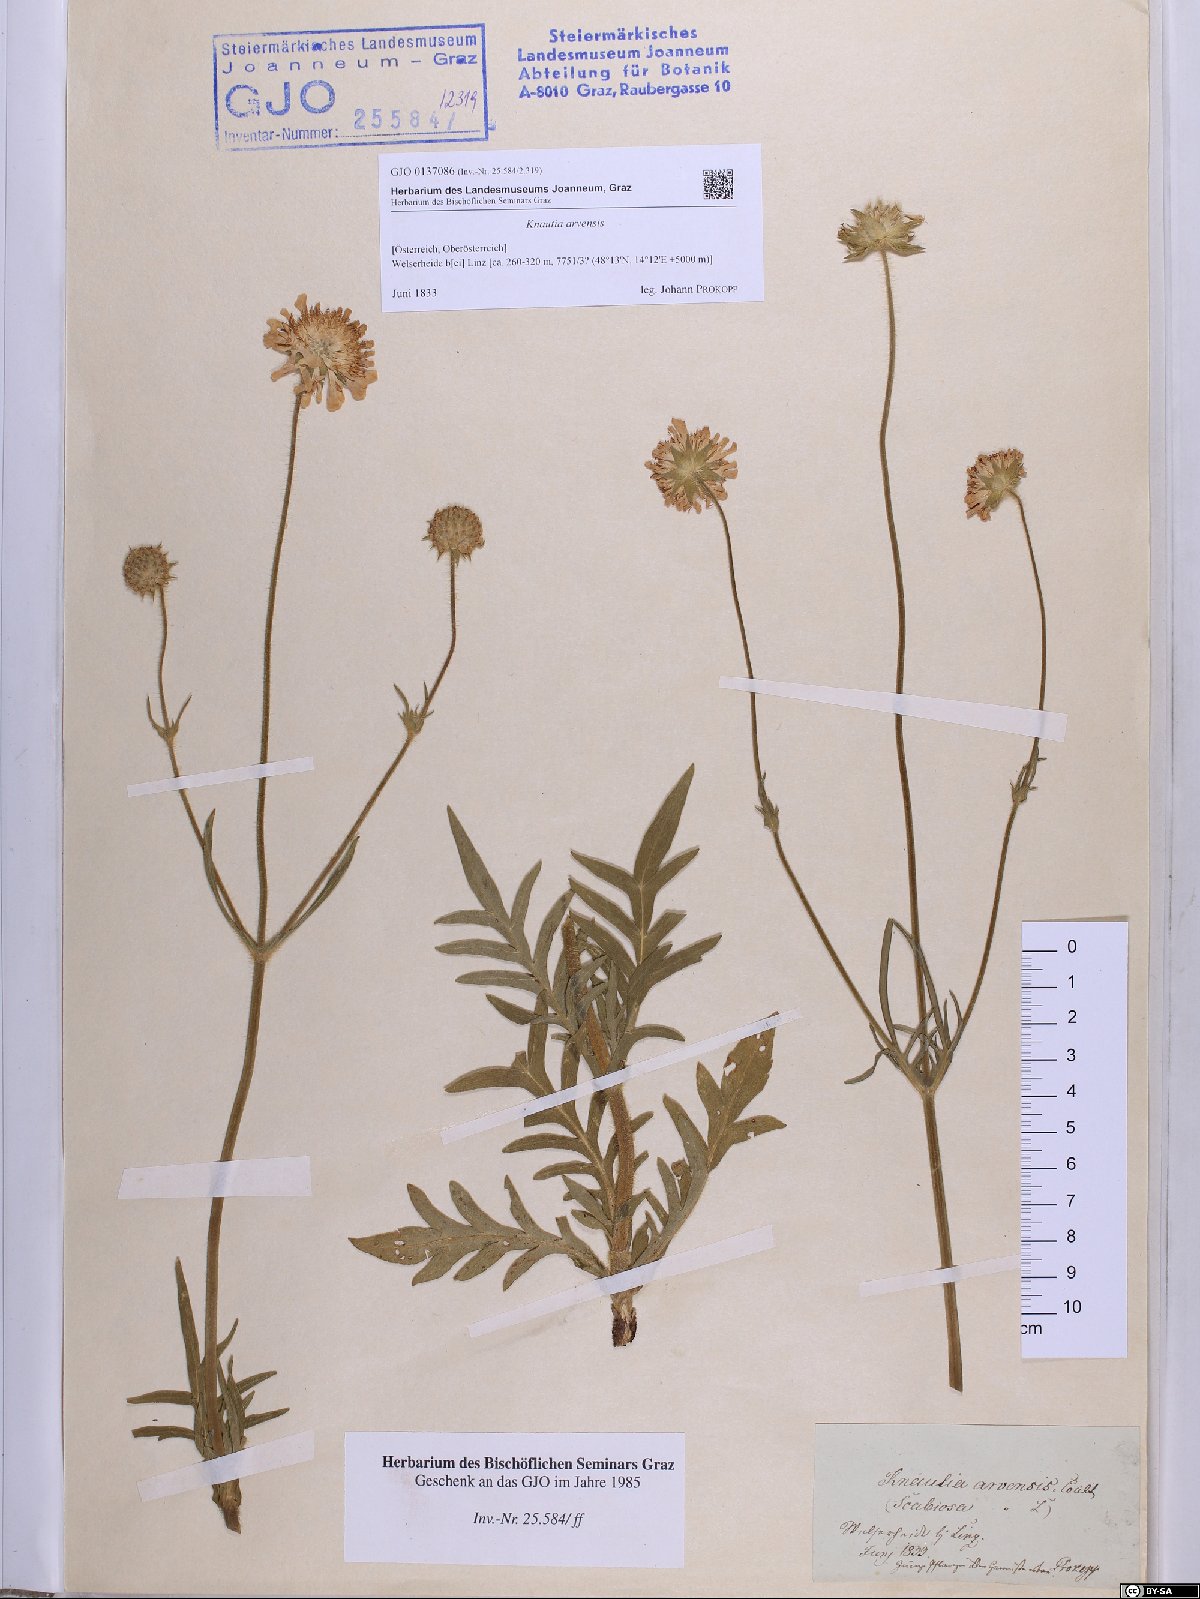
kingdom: Plantae
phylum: Tracheophyta
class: Magnoliopsida
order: Dipsacales
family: Caprifoliaceae
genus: Knautia
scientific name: Knautia arvensis
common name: Field scabiosa
